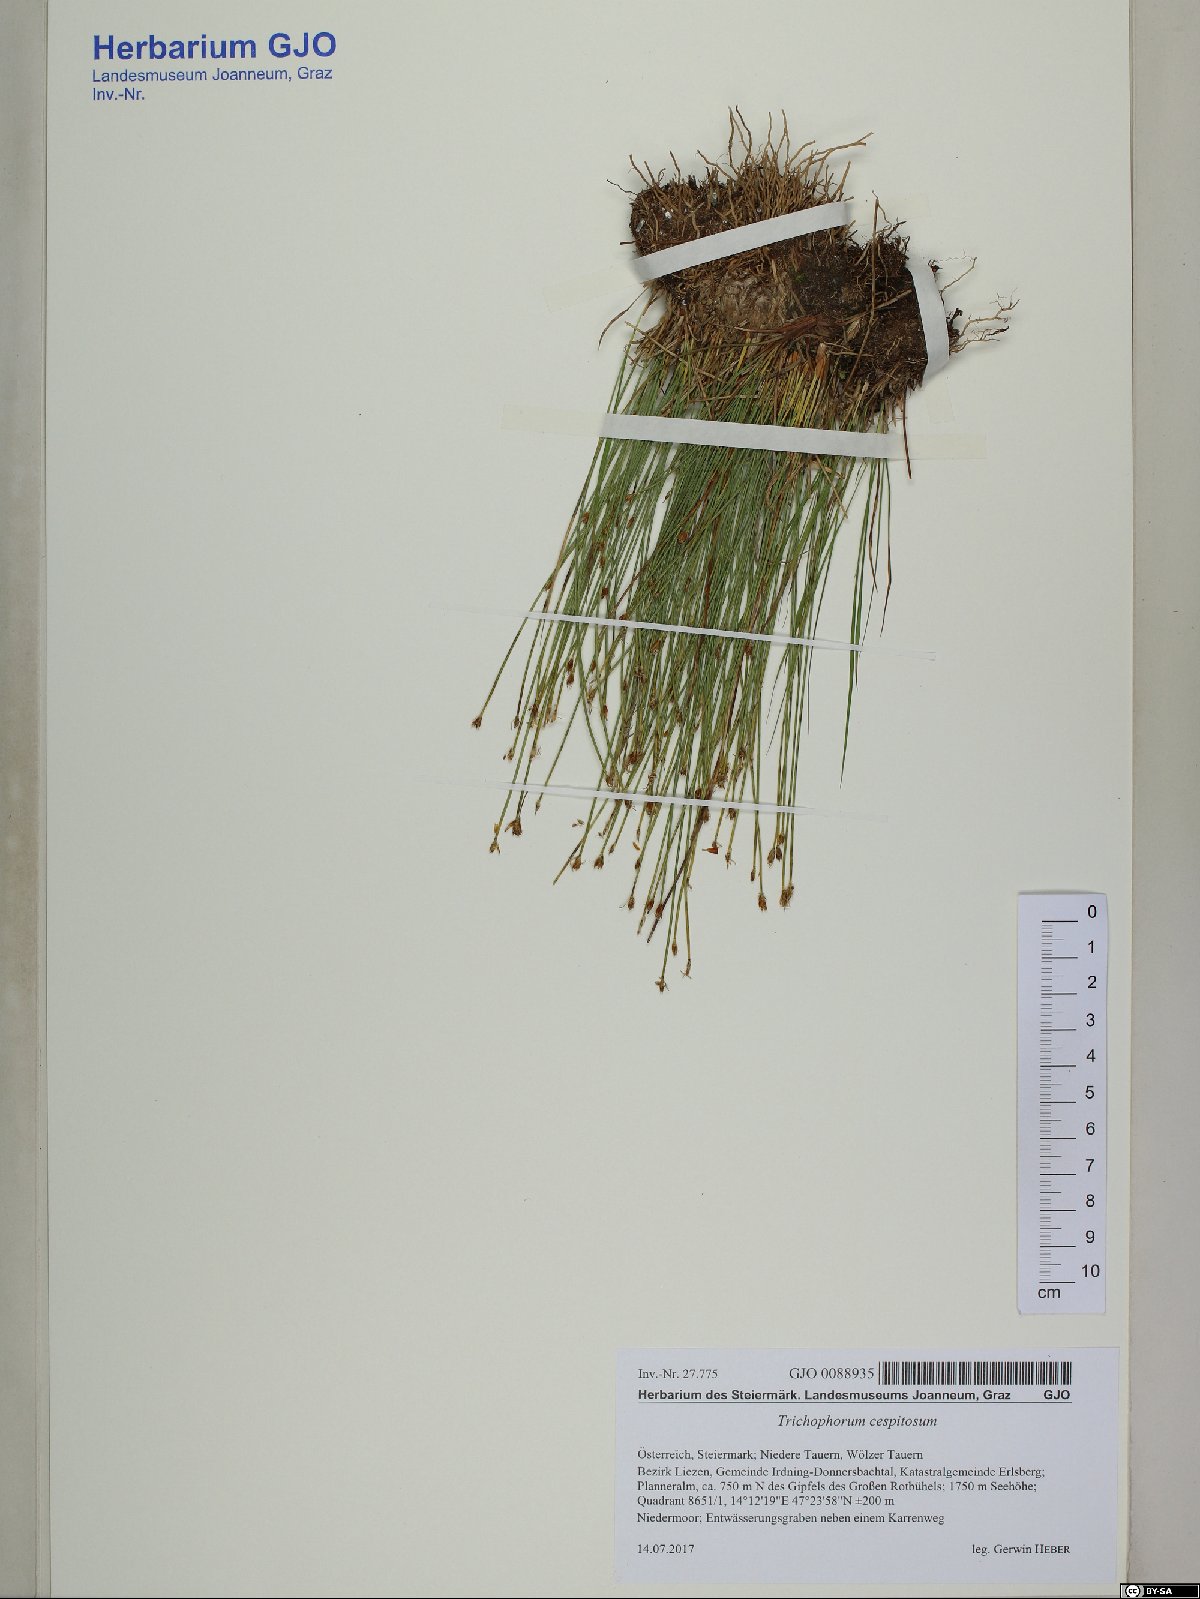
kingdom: Plantae
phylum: Tracheophyta
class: Liliopsida
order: Poales
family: Cyperaceae
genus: Trichophorum
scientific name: Trichophorum cespitosum
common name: Cespitose bulrush
